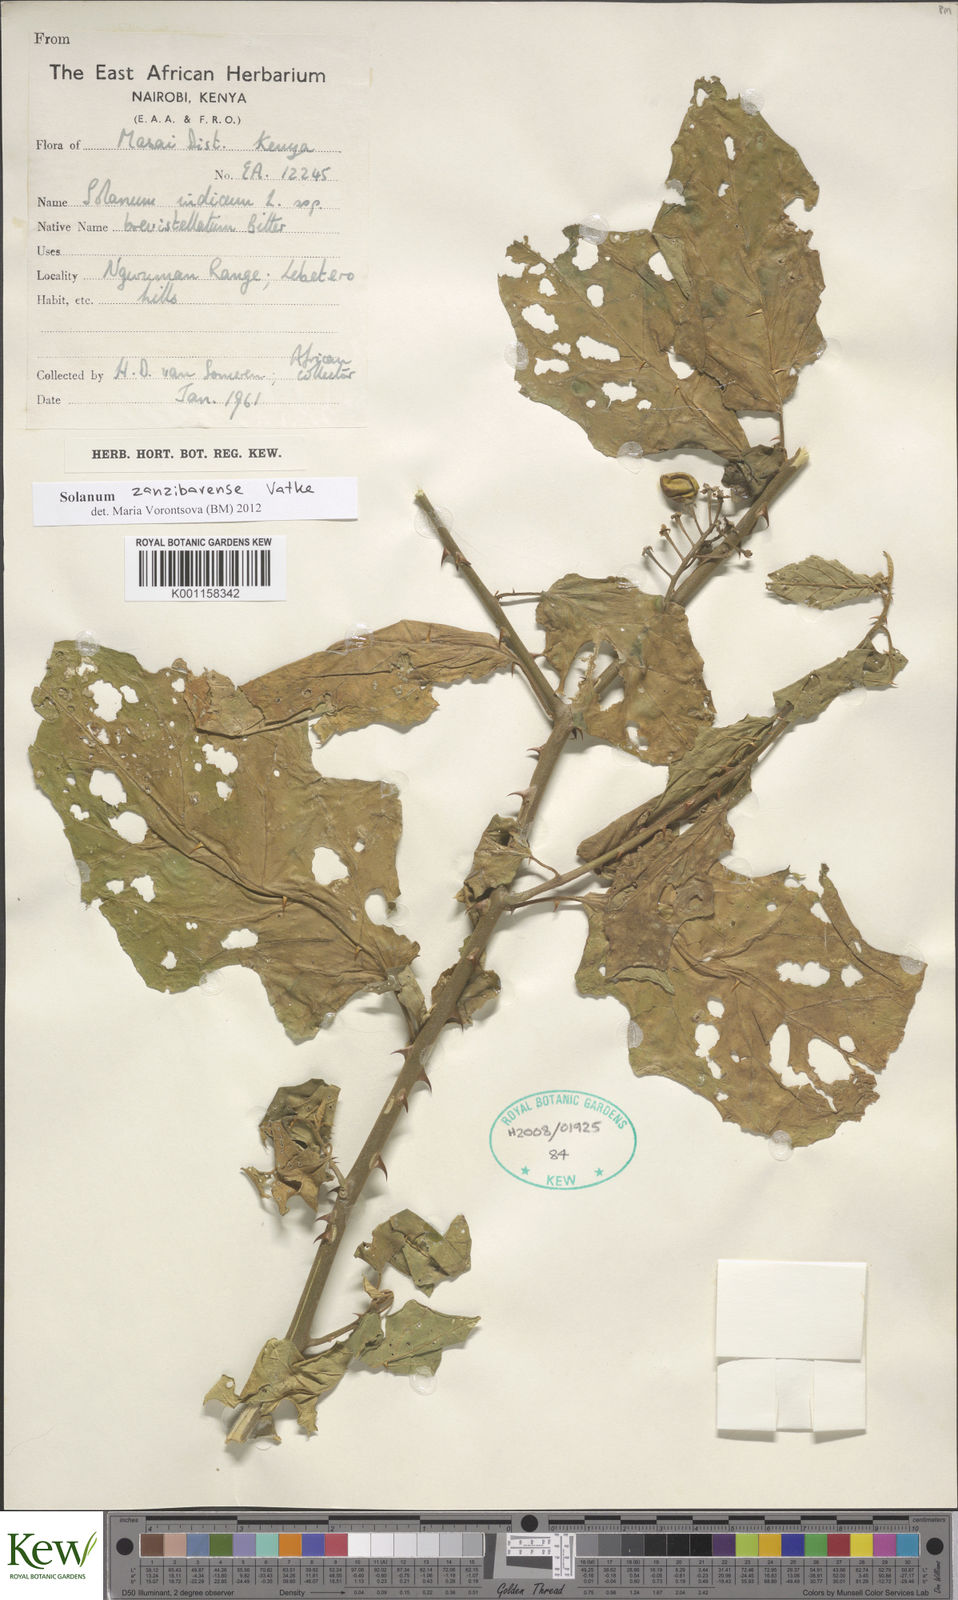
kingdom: Plantae
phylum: Tracheophyta
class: Magnoliopsida
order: Solanales
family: Solanaceae
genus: Solanum
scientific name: Solanum zanzibarense
